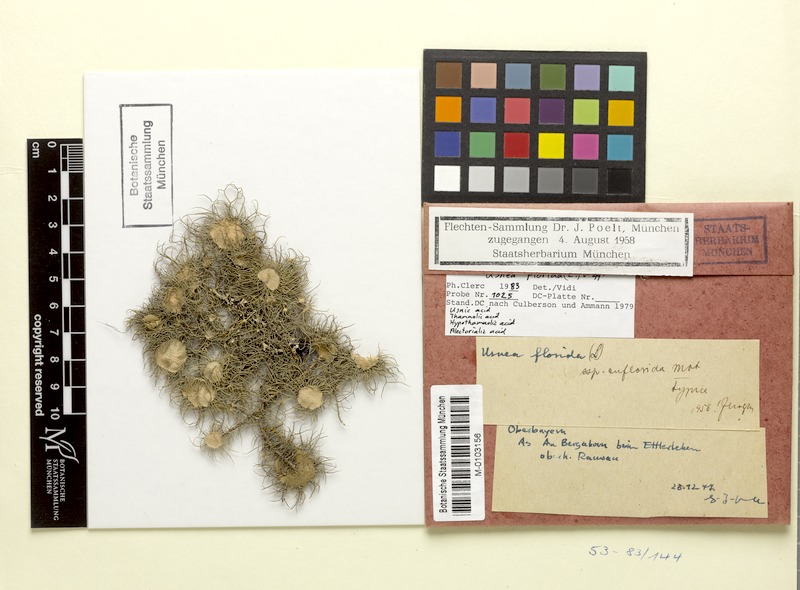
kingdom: Fungi
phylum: Ascomycota
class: Lecanoromycetes
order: Lecanorales
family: Parmeliaceae
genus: Usnea
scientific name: Usnea florida
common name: Witches' whiskers lichen
